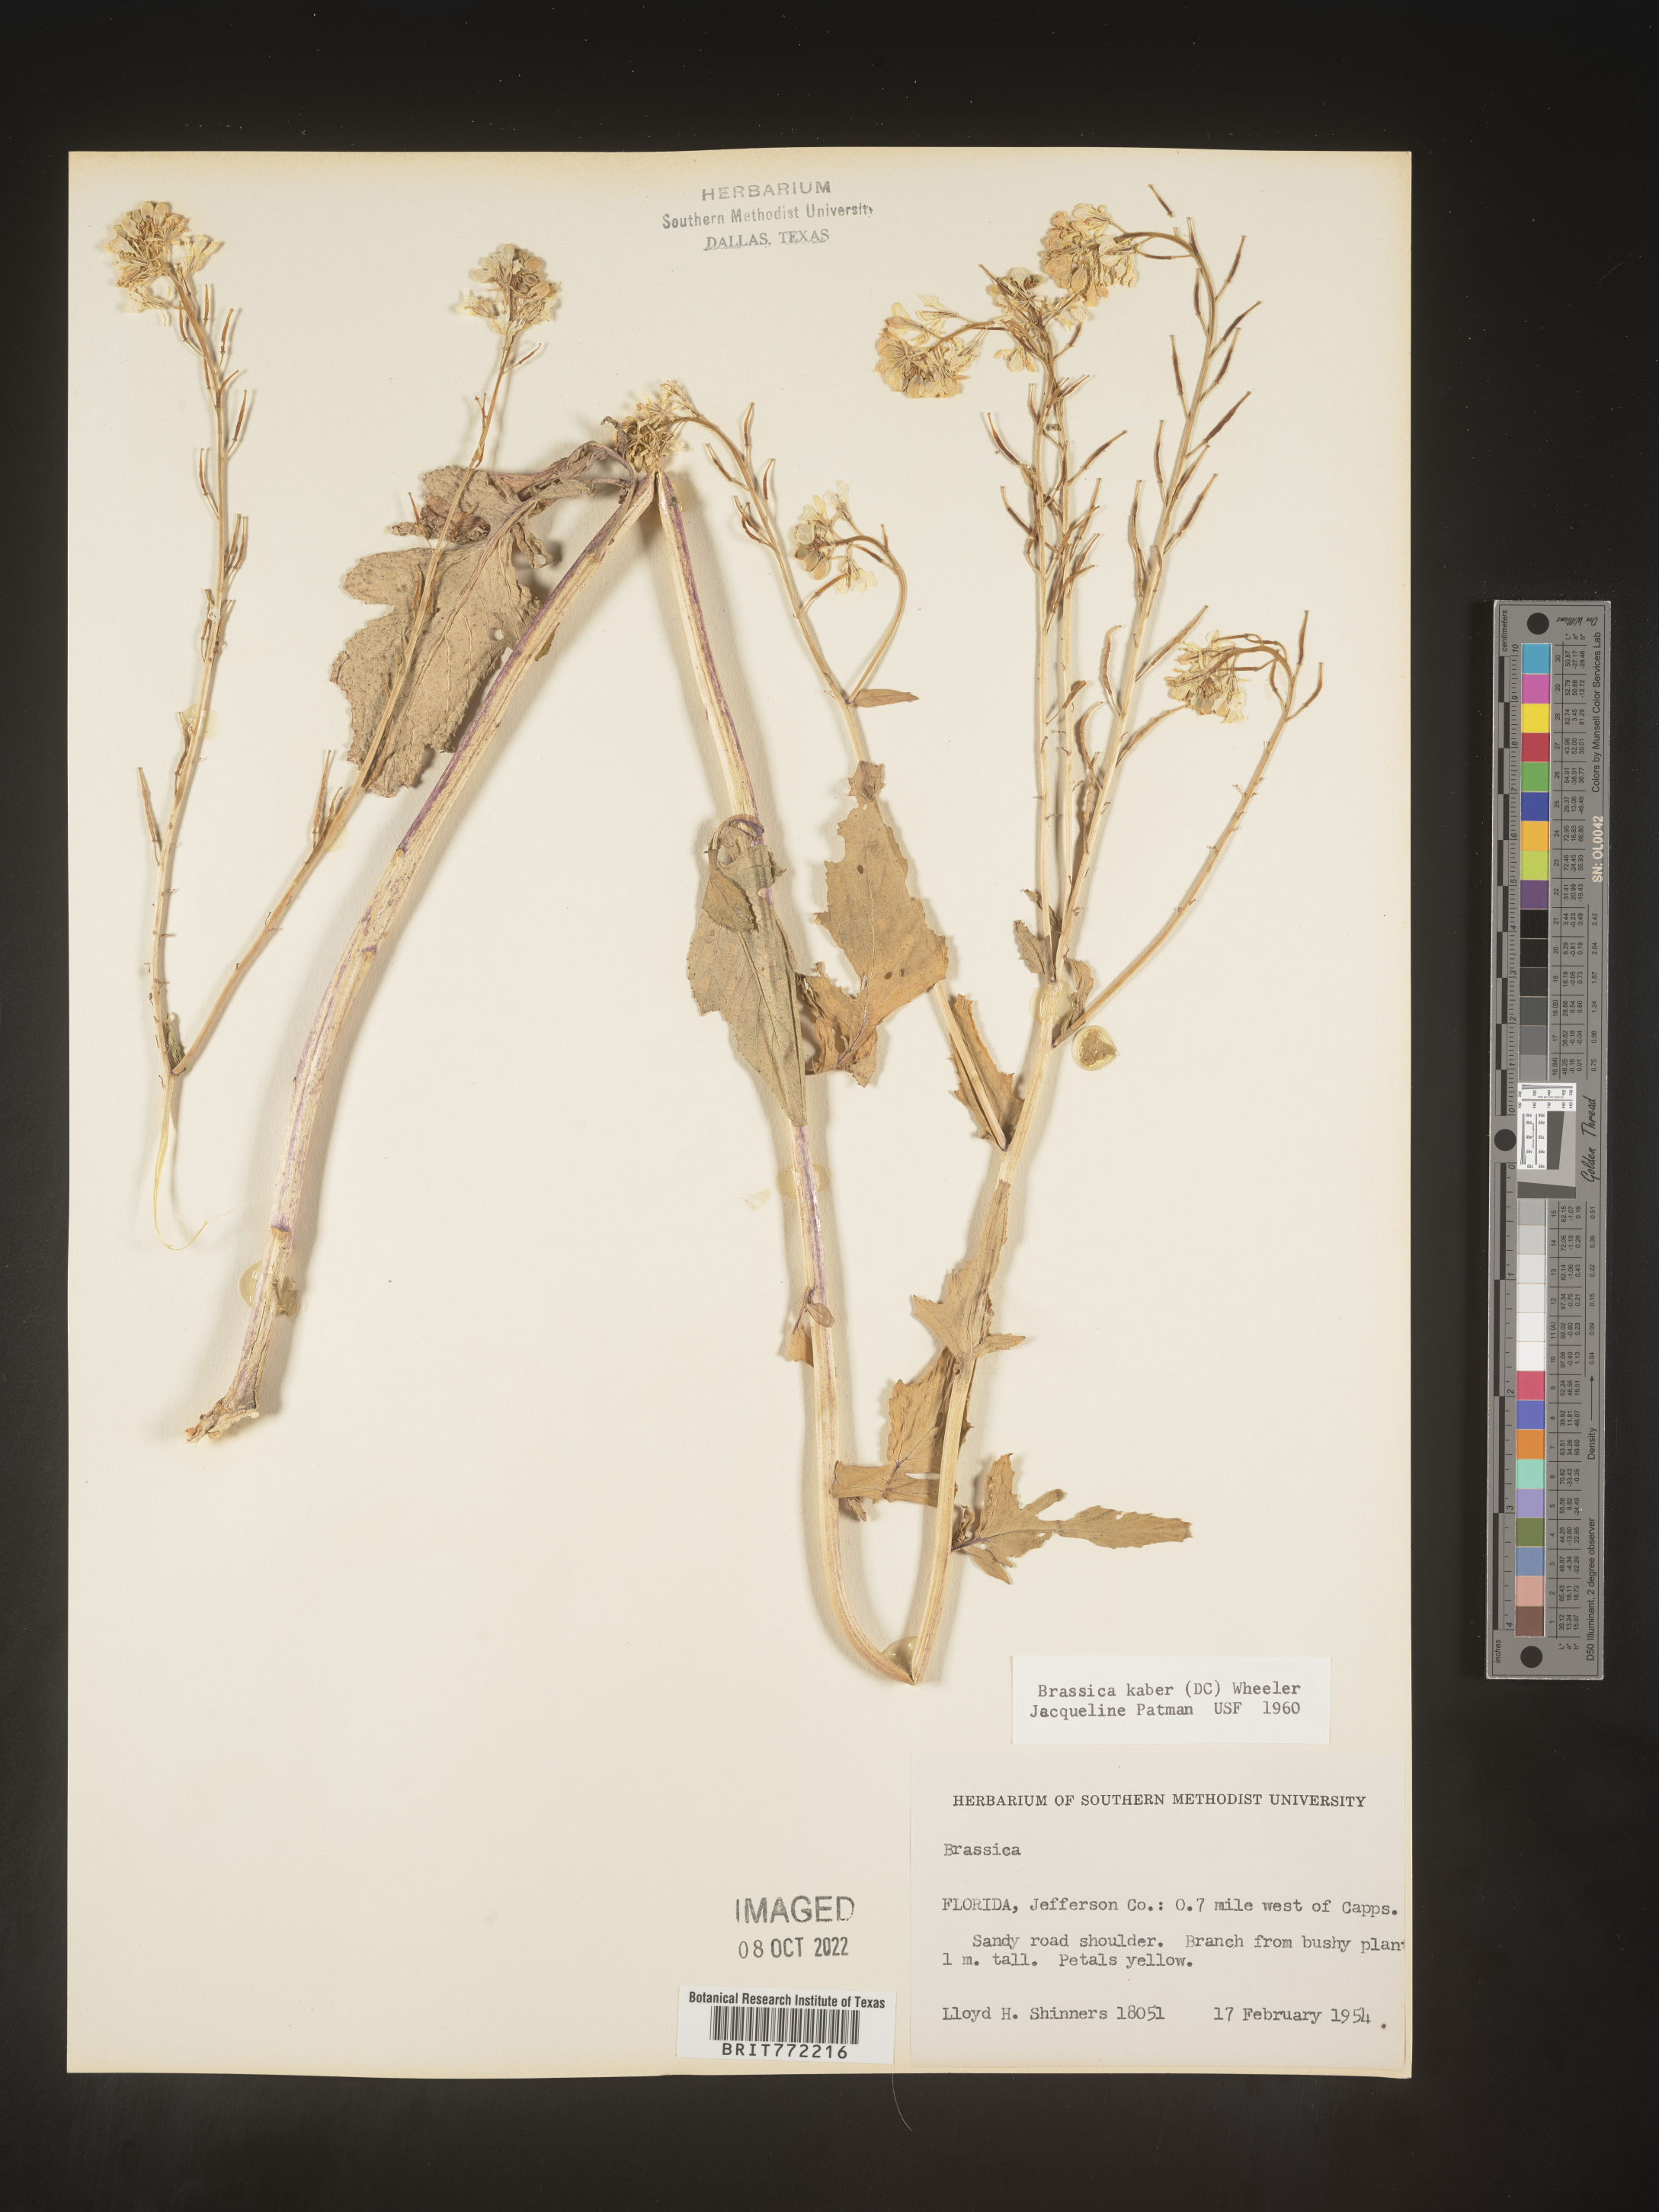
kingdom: Plantae
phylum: Tracheophyta
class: Magnoliopsida
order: Brassicales
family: Brassicaceae
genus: Sinapis
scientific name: Sinapis arvensis
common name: Charlock
